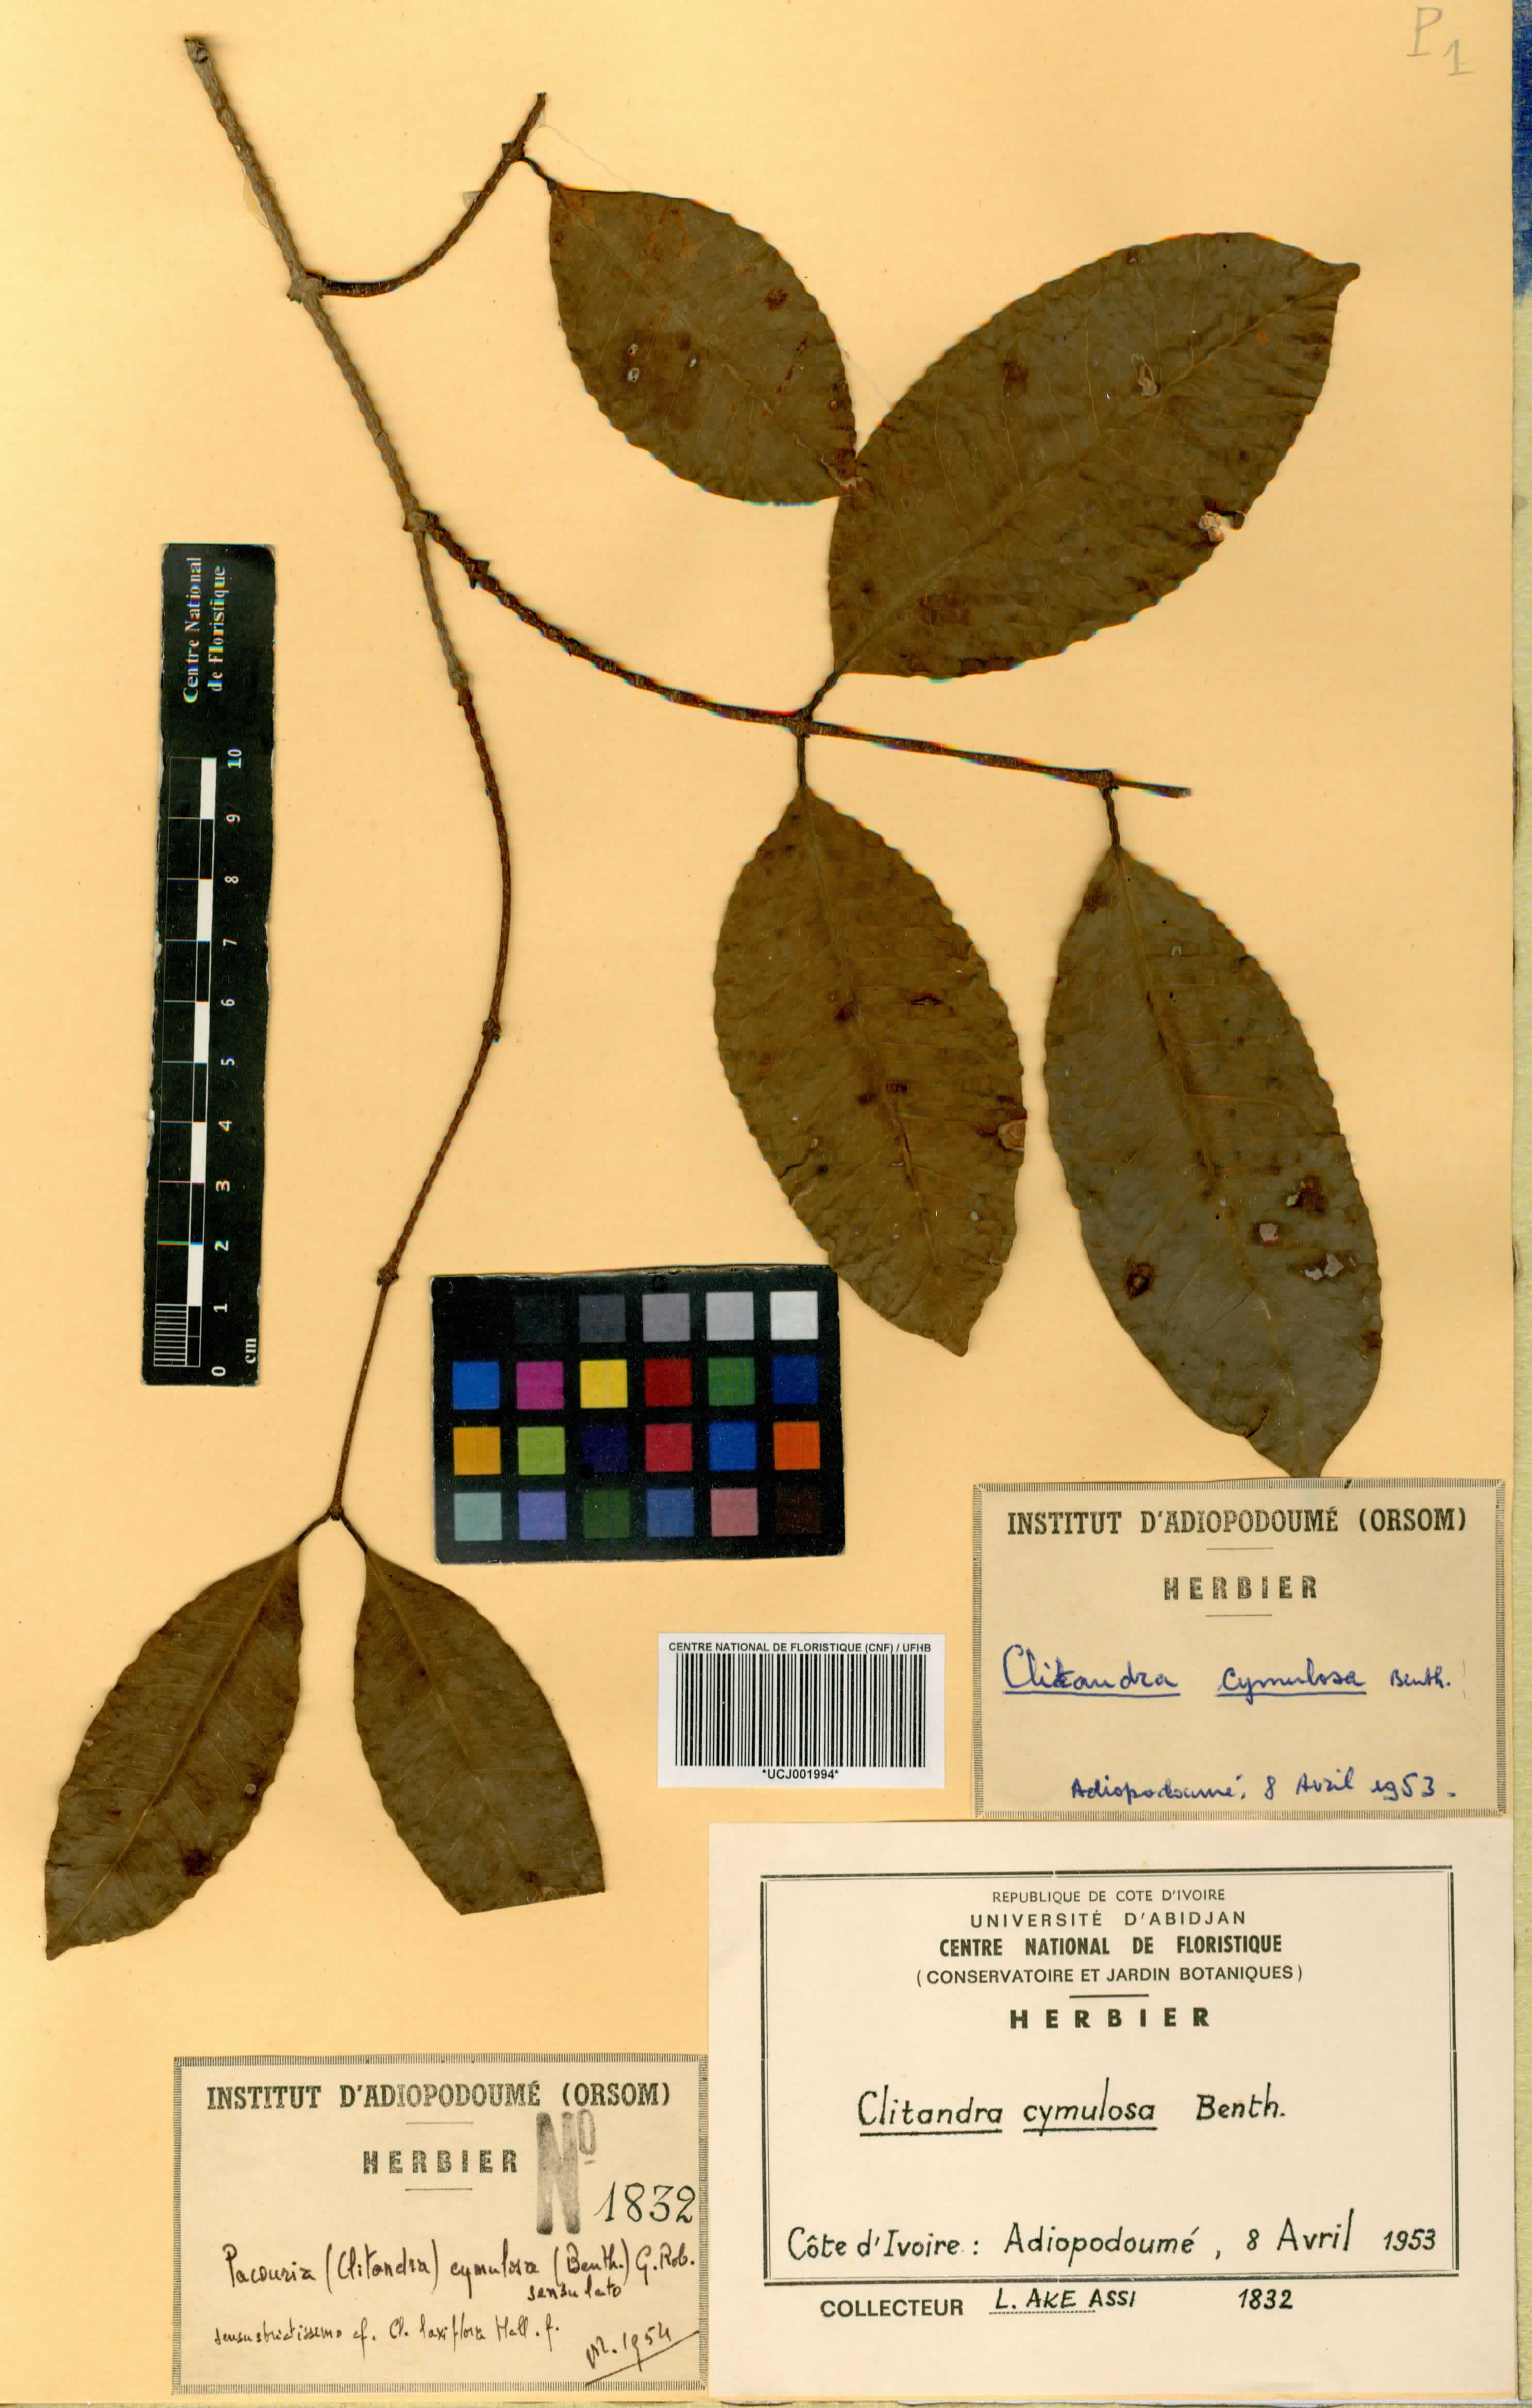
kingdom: Plantae
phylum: Tracheophyta
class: Magnoliopsida
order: Gentianales
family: Apocynaceae
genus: Clitandra
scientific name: Clitandra cymulosa
